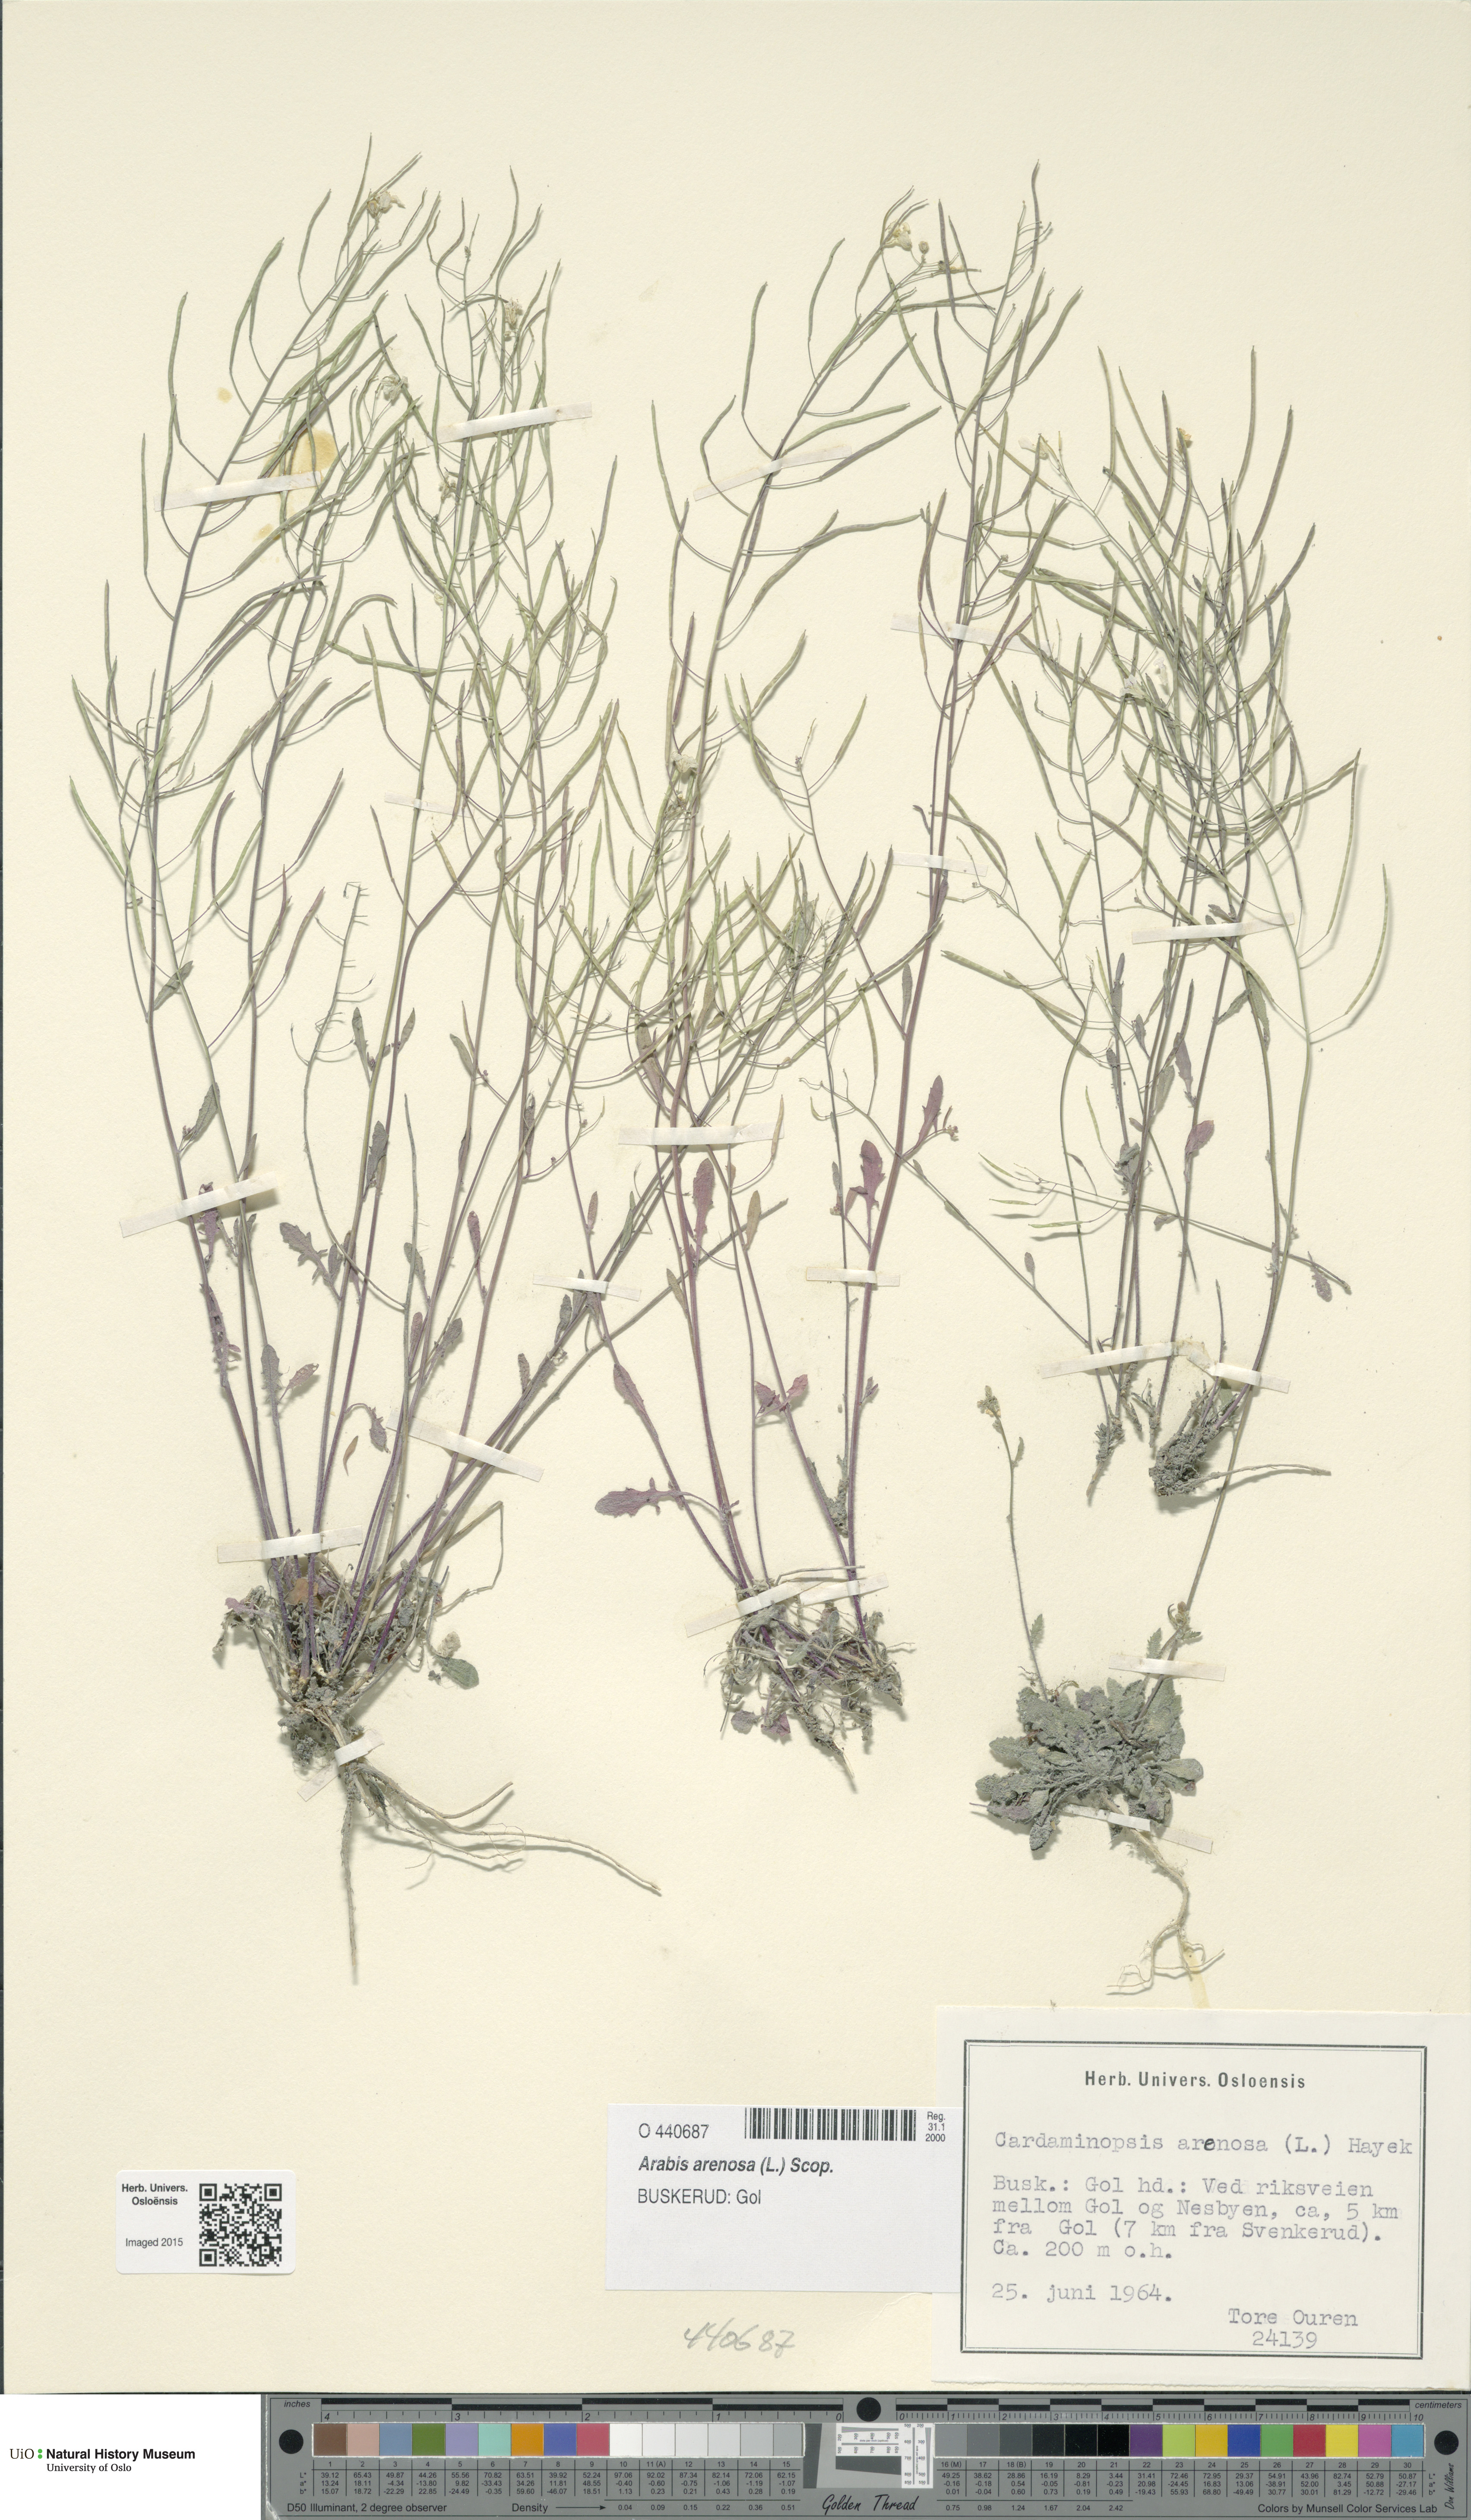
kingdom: Plantae
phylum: Tracheophyta
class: Magnoliopsida
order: Brassicales
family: Brassicaceae
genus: Arabidopsis
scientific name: Arabidopsis arenosa
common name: Sand rock-cress
